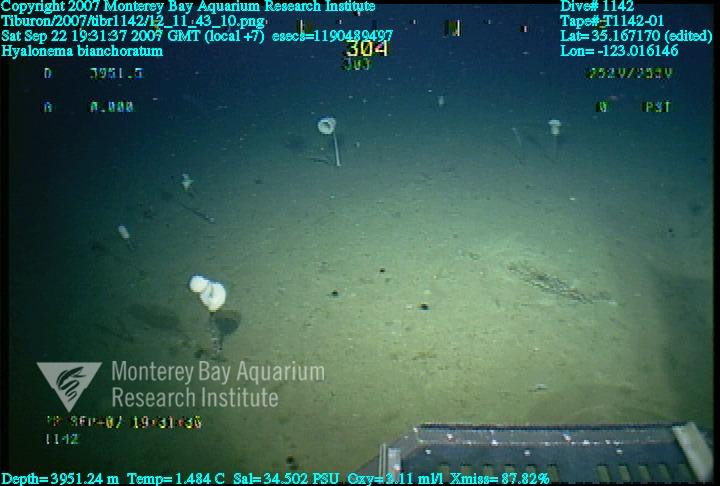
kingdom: Animalia
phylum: Porifera
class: Hexactinellida
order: Amphidiscosida
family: Hyalonematidae
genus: Hyalonema
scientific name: Hyalonema bianchoratum
